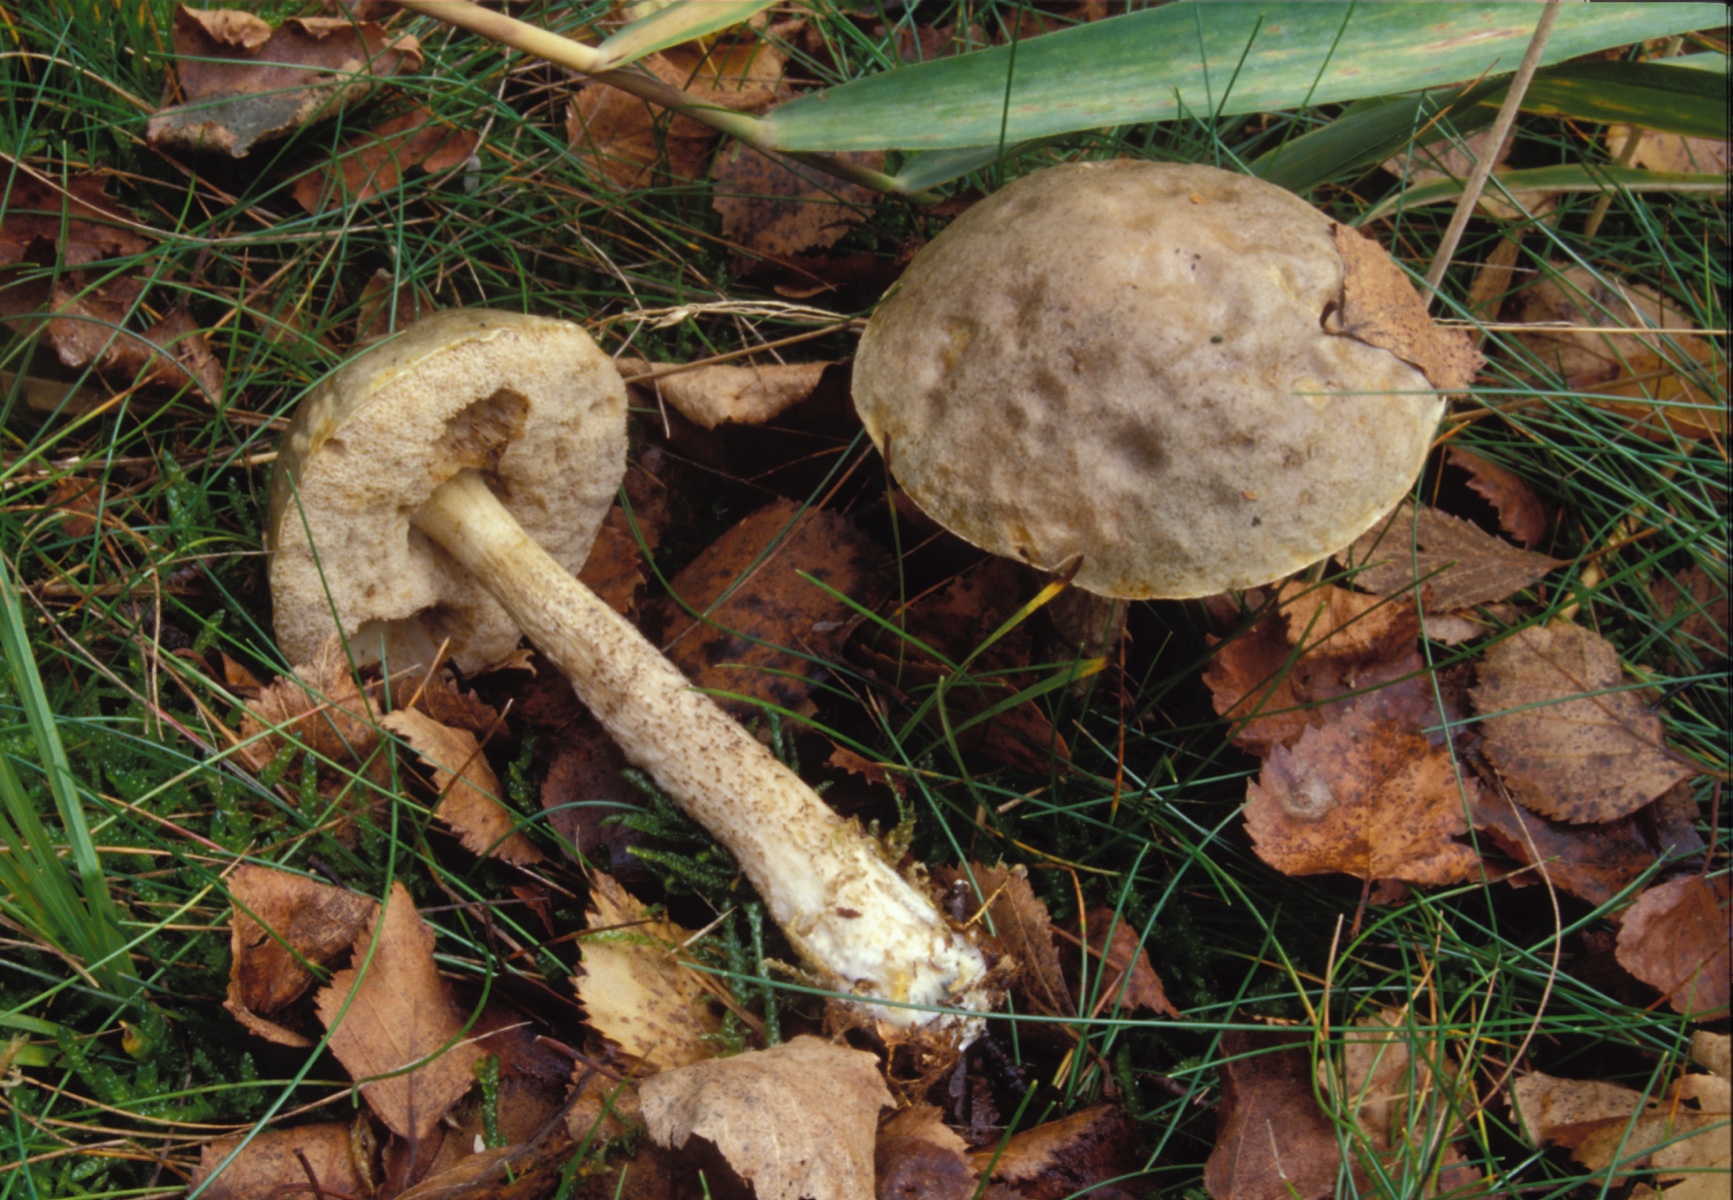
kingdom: Fungi
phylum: Basidiomycota
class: Agaricomycetes
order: Boletales
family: Boletaceae
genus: Leccinum
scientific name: Leccinum schistophilum
